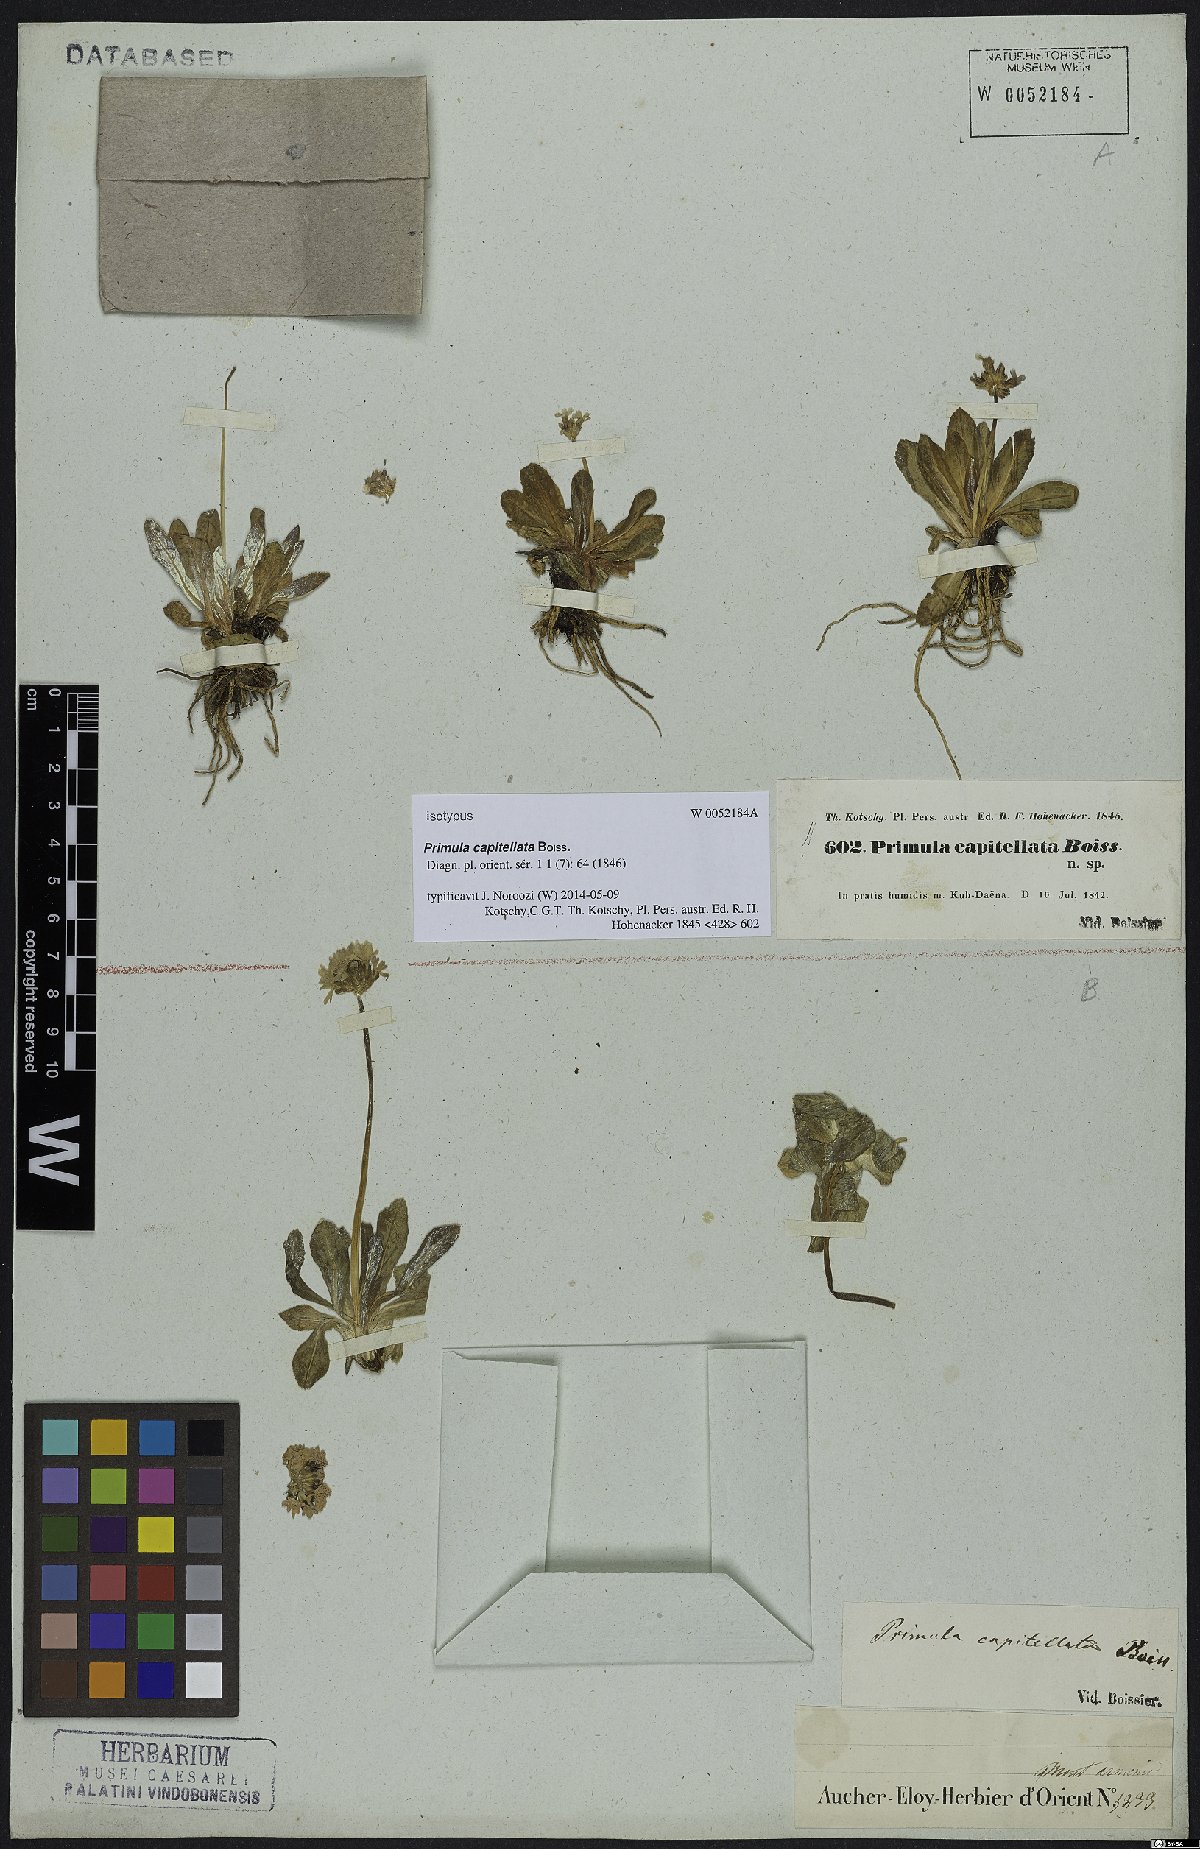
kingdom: Plantae
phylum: Tracheophyta
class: Magnoliopsida
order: Ericales
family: Primulaceae
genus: Primula
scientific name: Primula capitellata
